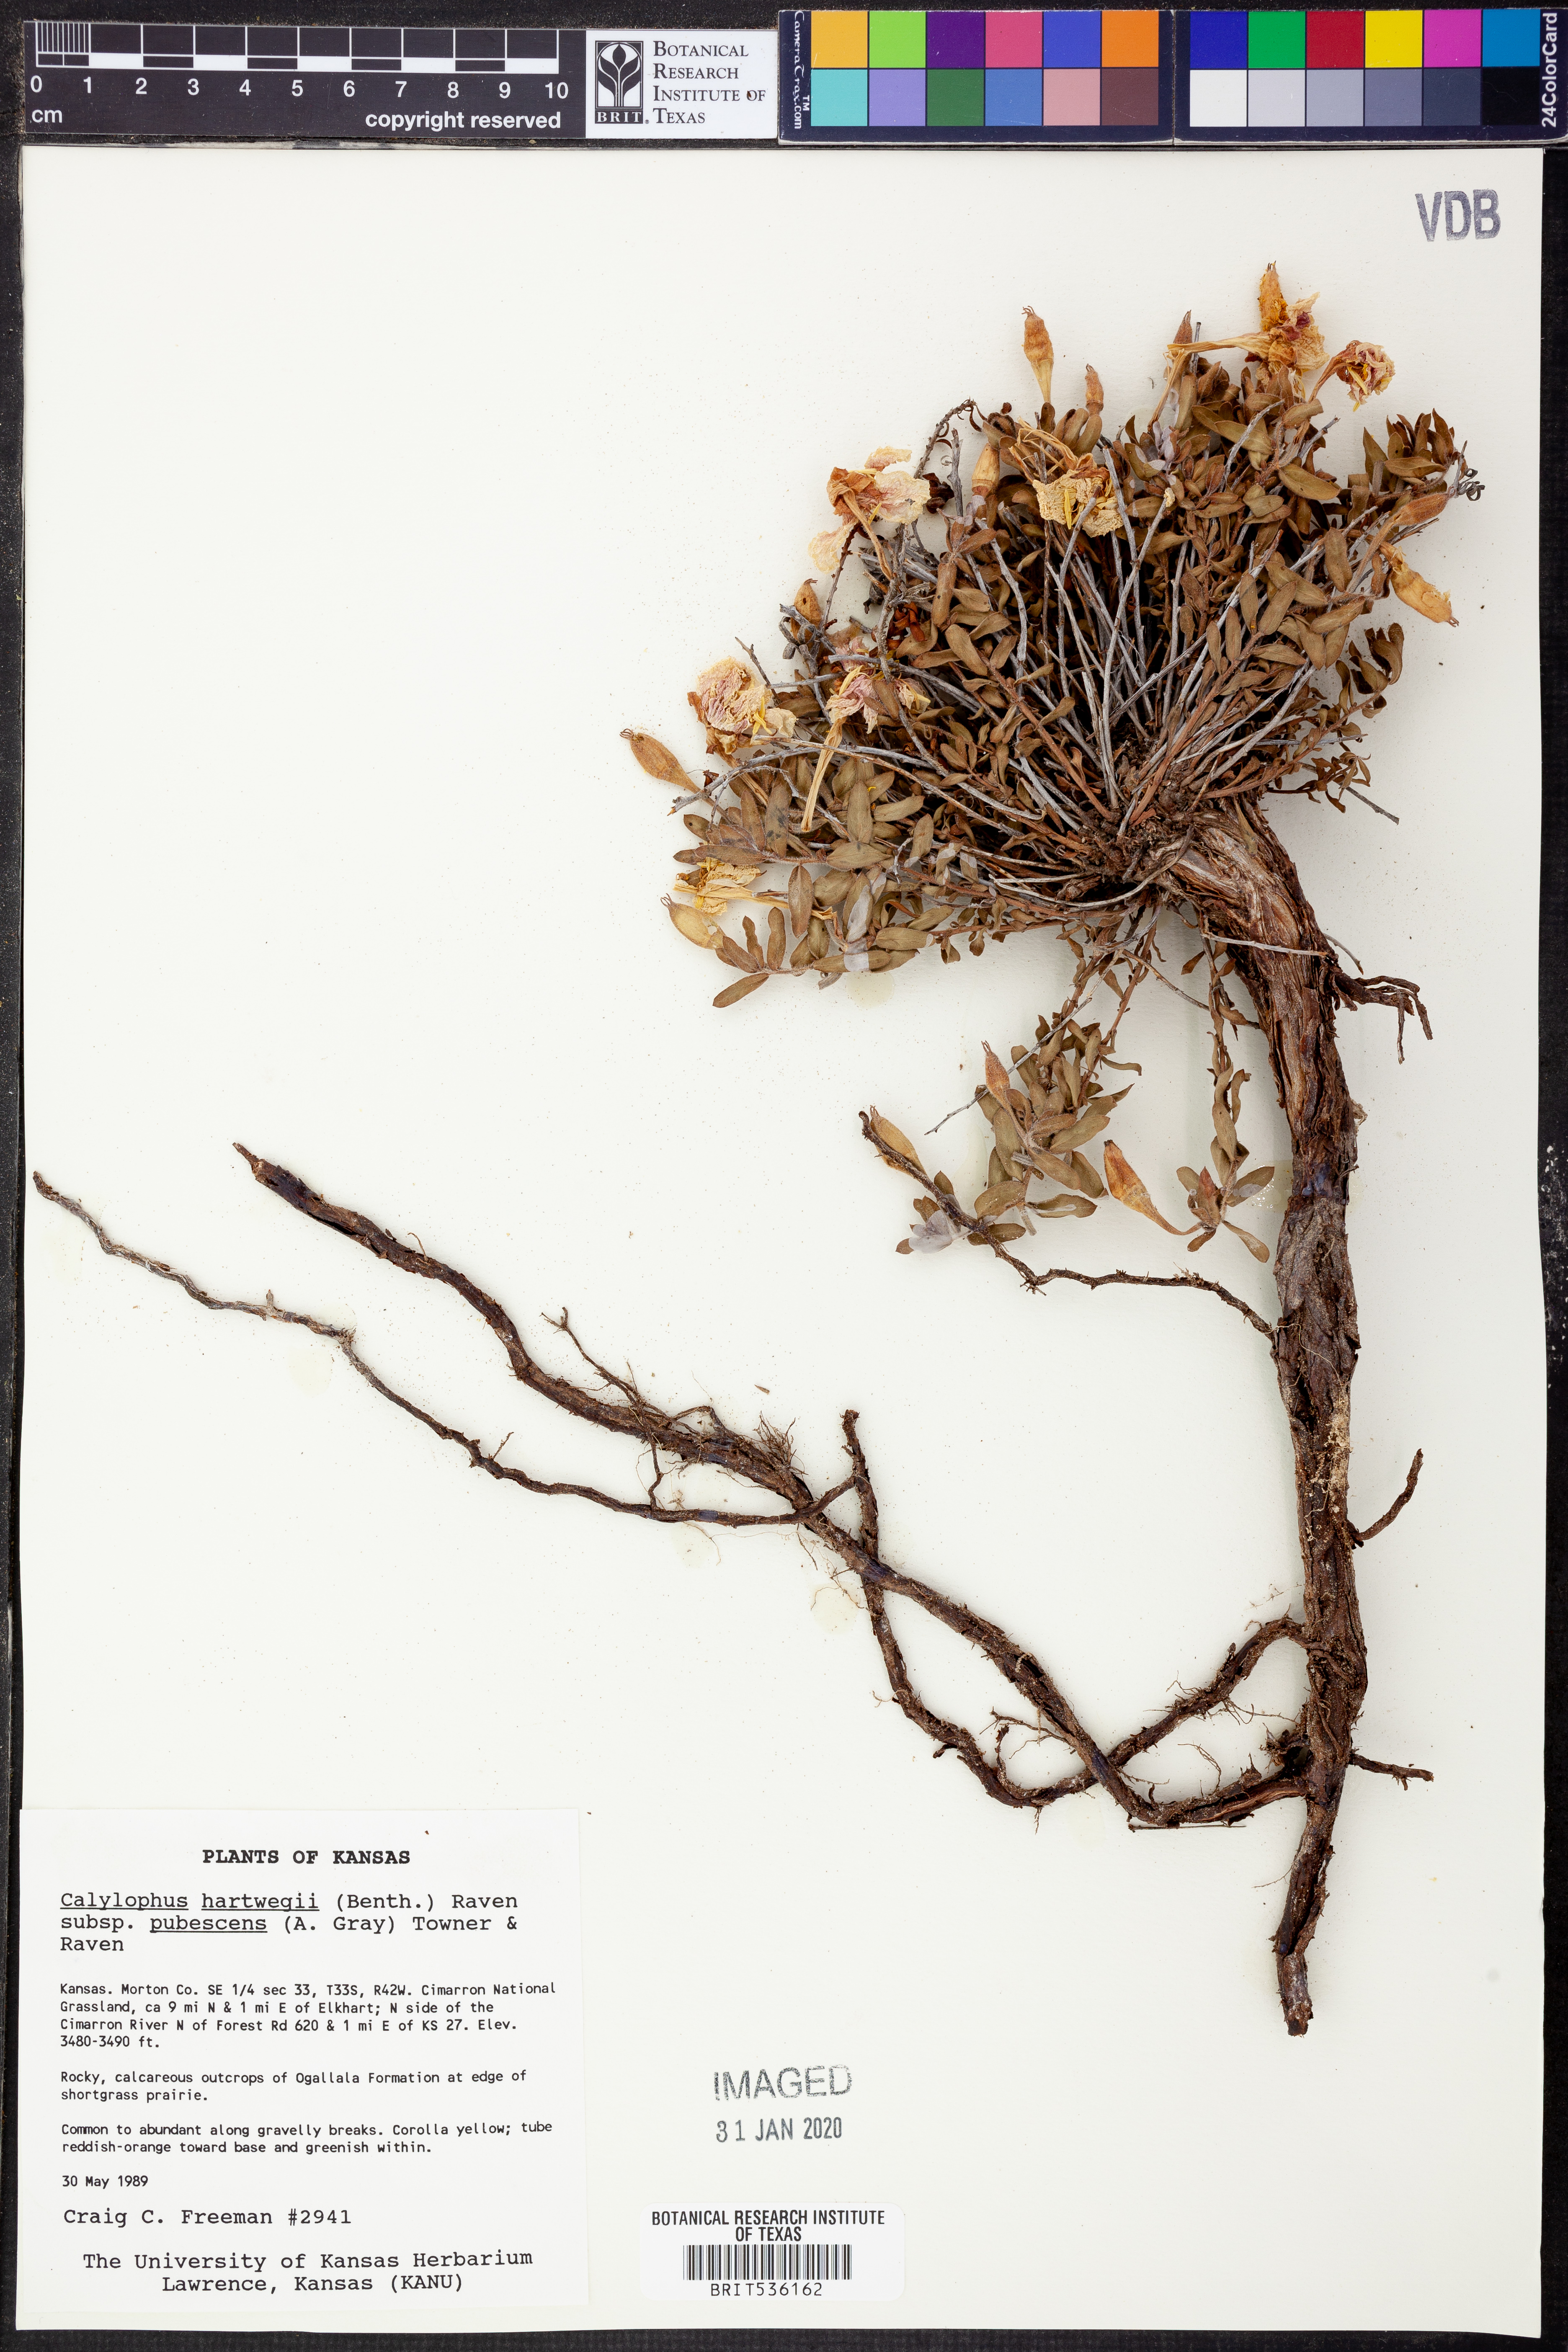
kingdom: Plantae
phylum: Tracheophyta
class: Magnoliopsida
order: Myrtales
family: Onagraceae
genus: Oenothera
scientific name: Oenothera hartwegii
